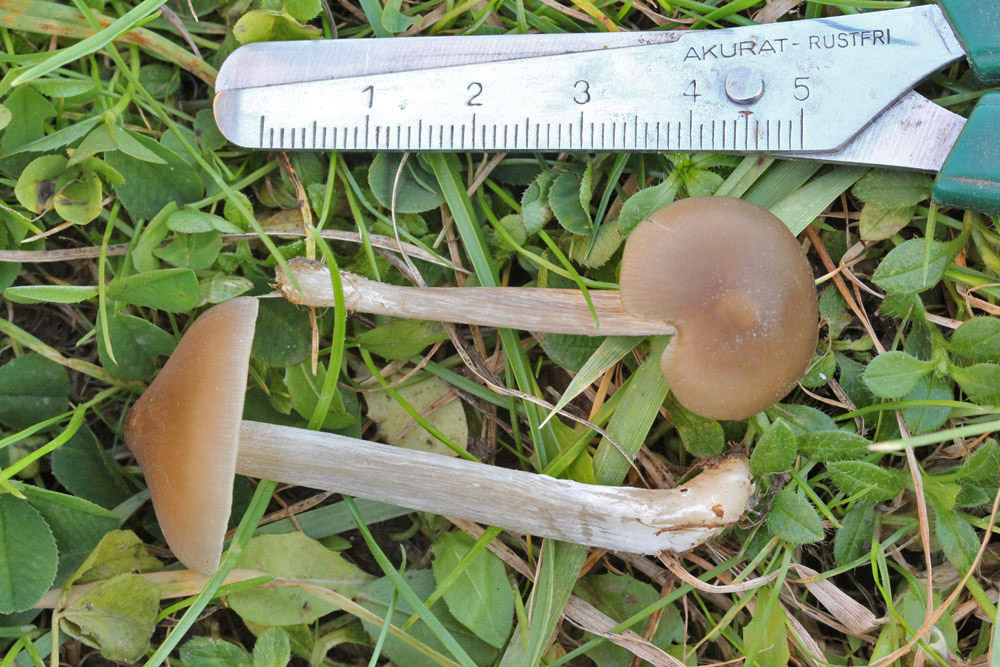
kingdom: Fungi
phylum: Basidiomycota
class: Agaricomycetes
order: Agaricales
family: Entolomataceae
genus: Entoloma
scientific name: Entoloma sericeum
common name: silkeglinsende rødblad
